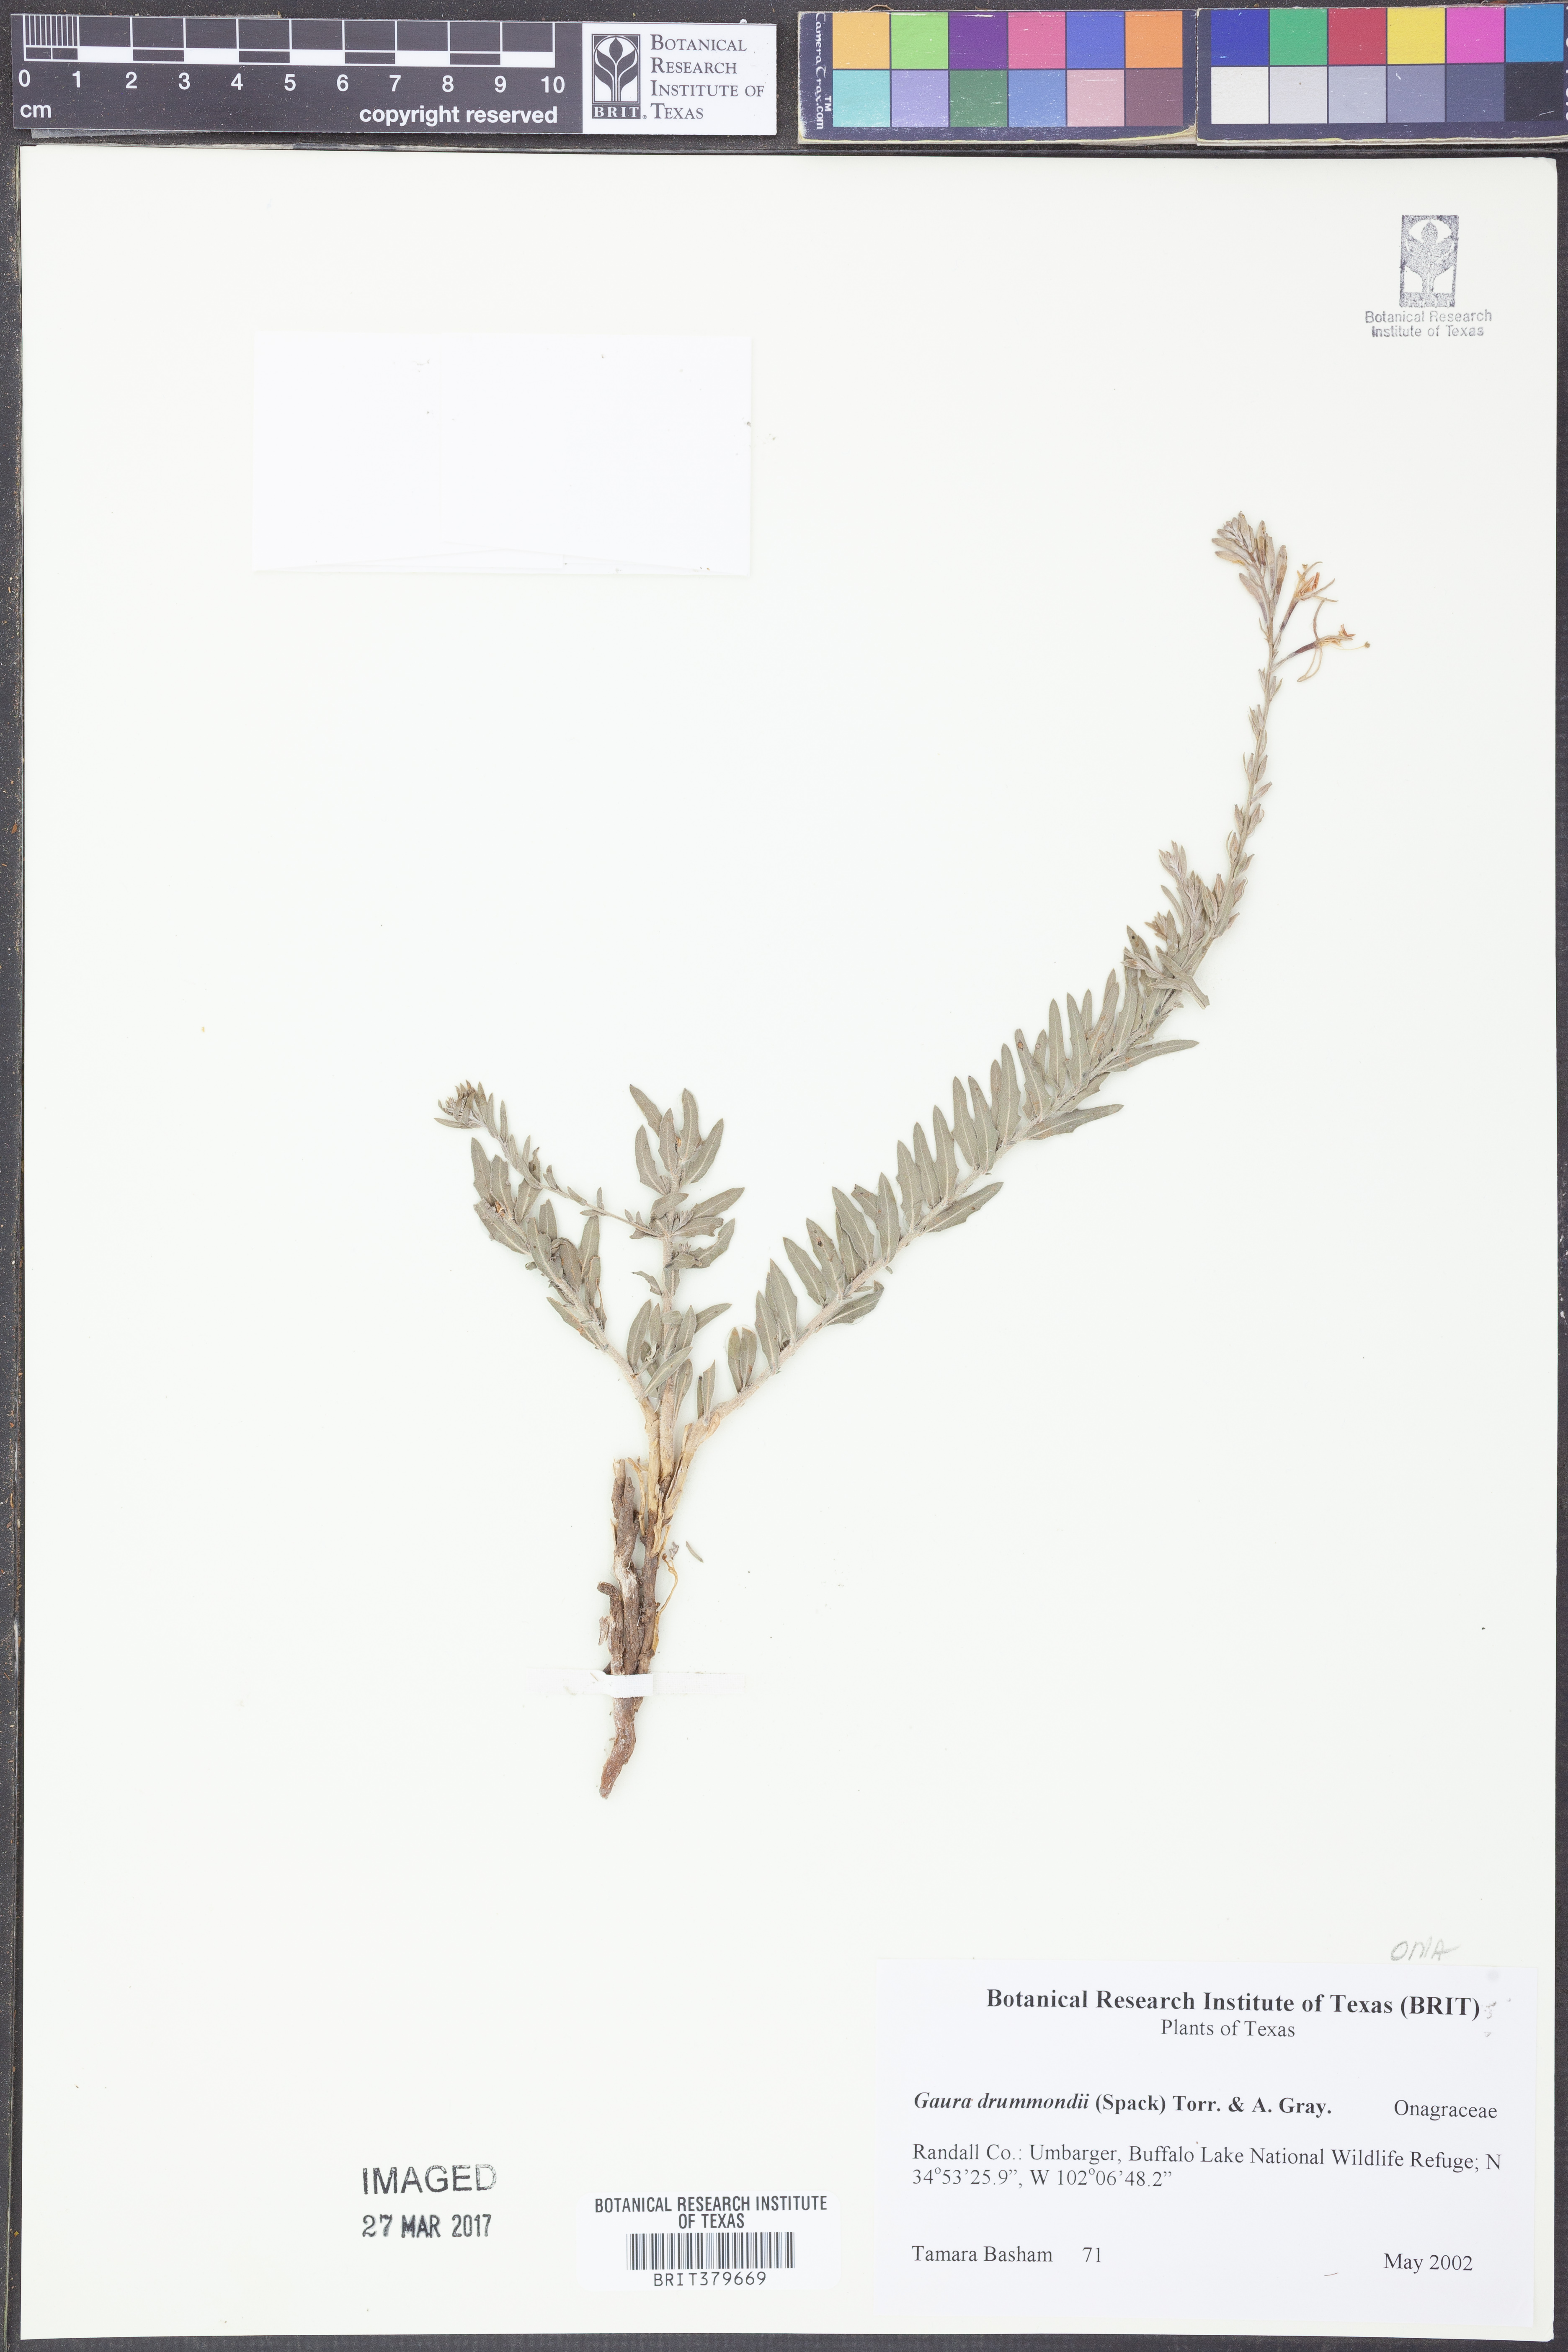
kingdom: Plantae
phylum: Tracheophyta
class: Magnoliopsida
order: Myrtales
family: Onagraceae
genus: Oenothera
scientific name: Oenothera hispida
